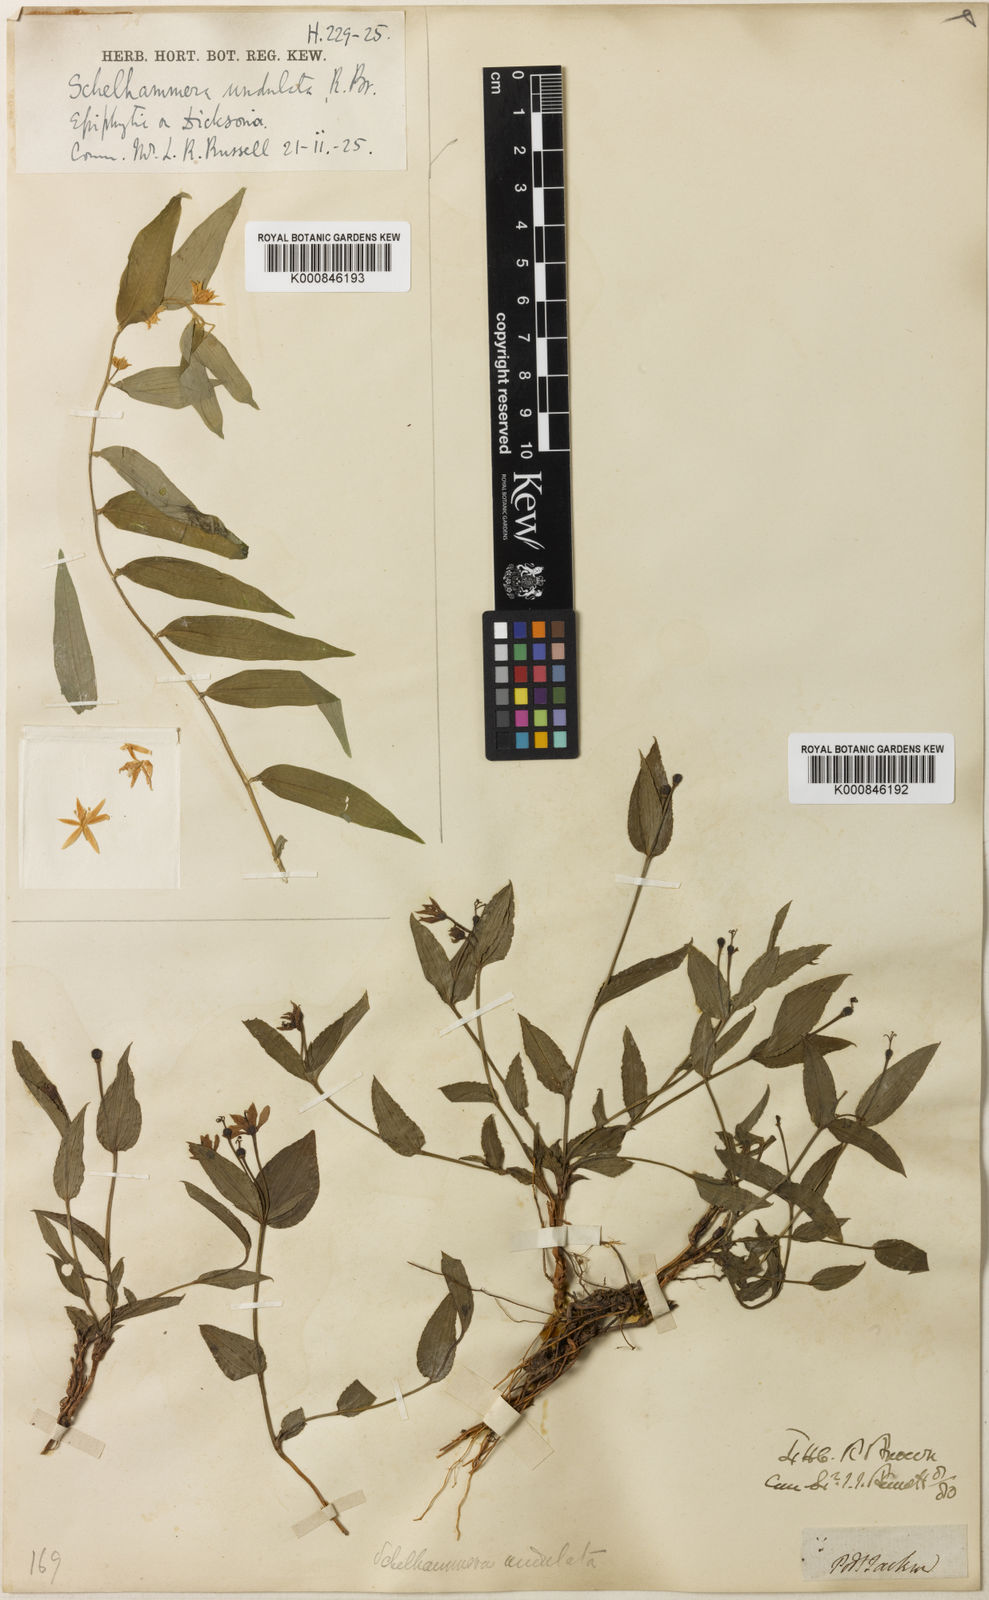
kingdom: Plantae
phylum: Tracheophyta
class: Liliopsida
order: Liliales
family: Colchicaceae
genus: Schelhammera
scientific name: Schelhammera undulata
